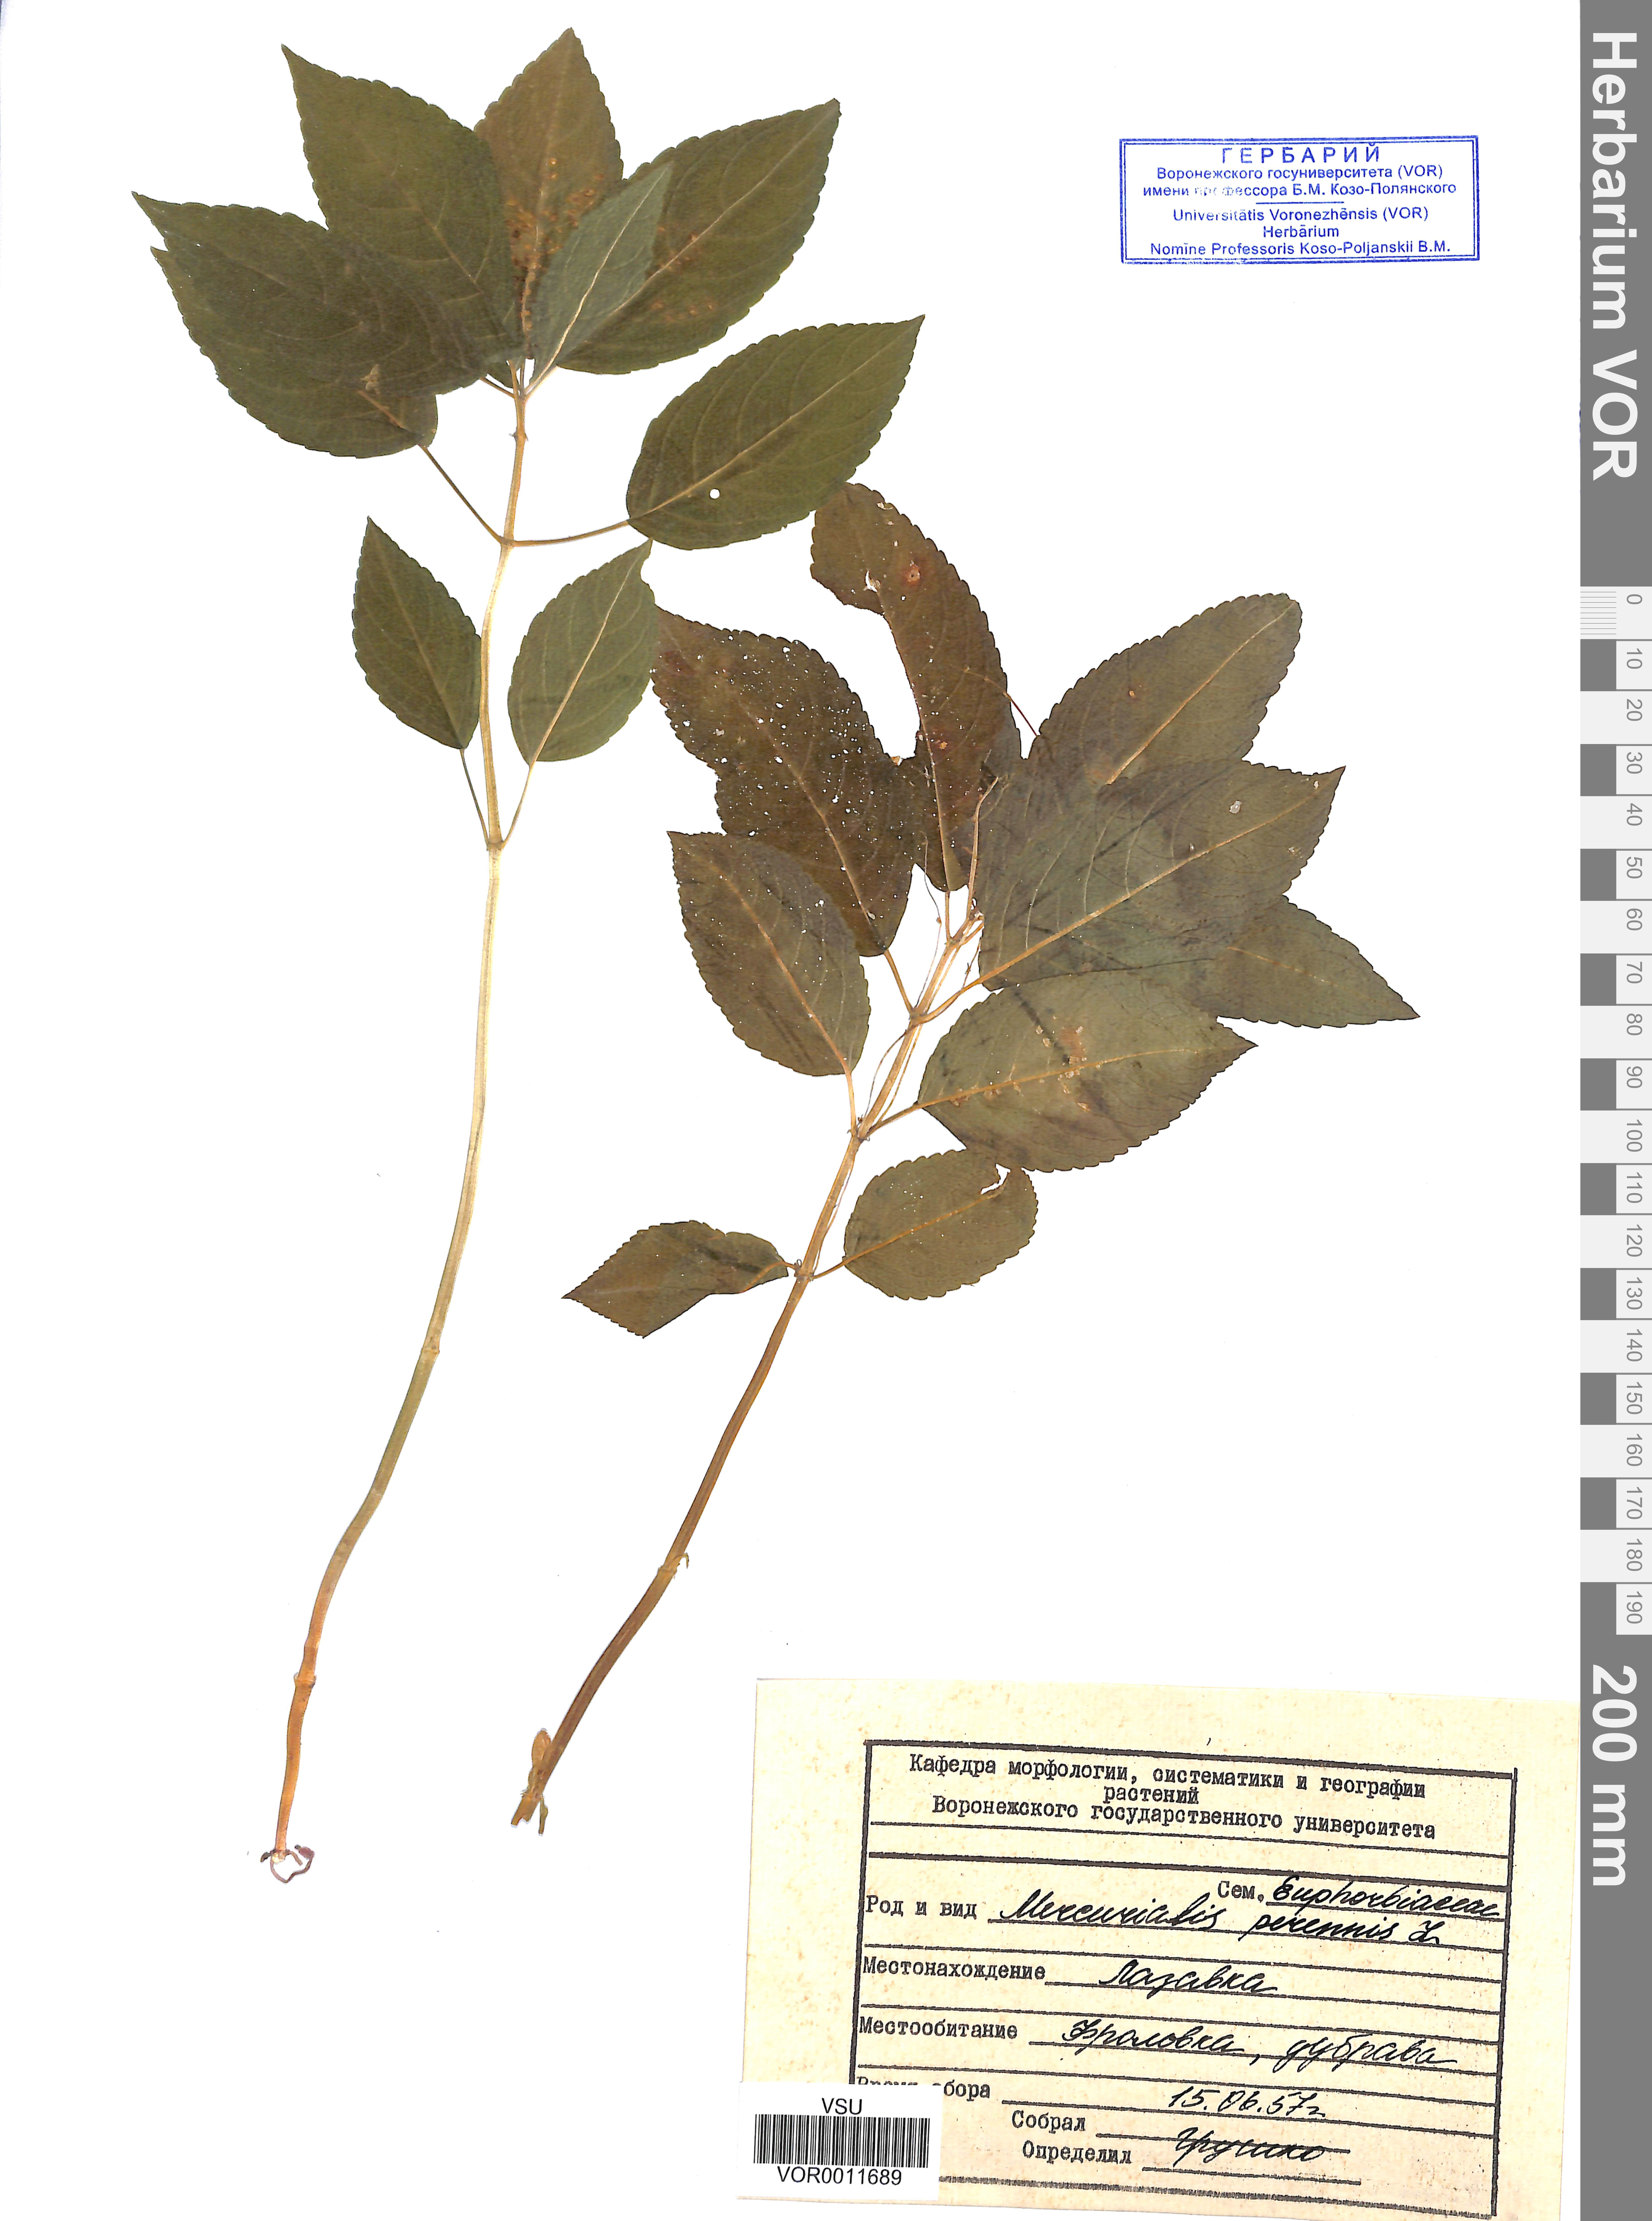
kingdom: Plantae
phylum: Tracheophyta
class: Magnoliopsida
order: Malpighiales
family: Euphorbiaceae
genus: Mercurialis
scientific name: Mercurialis perennis
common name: Dog mercury
